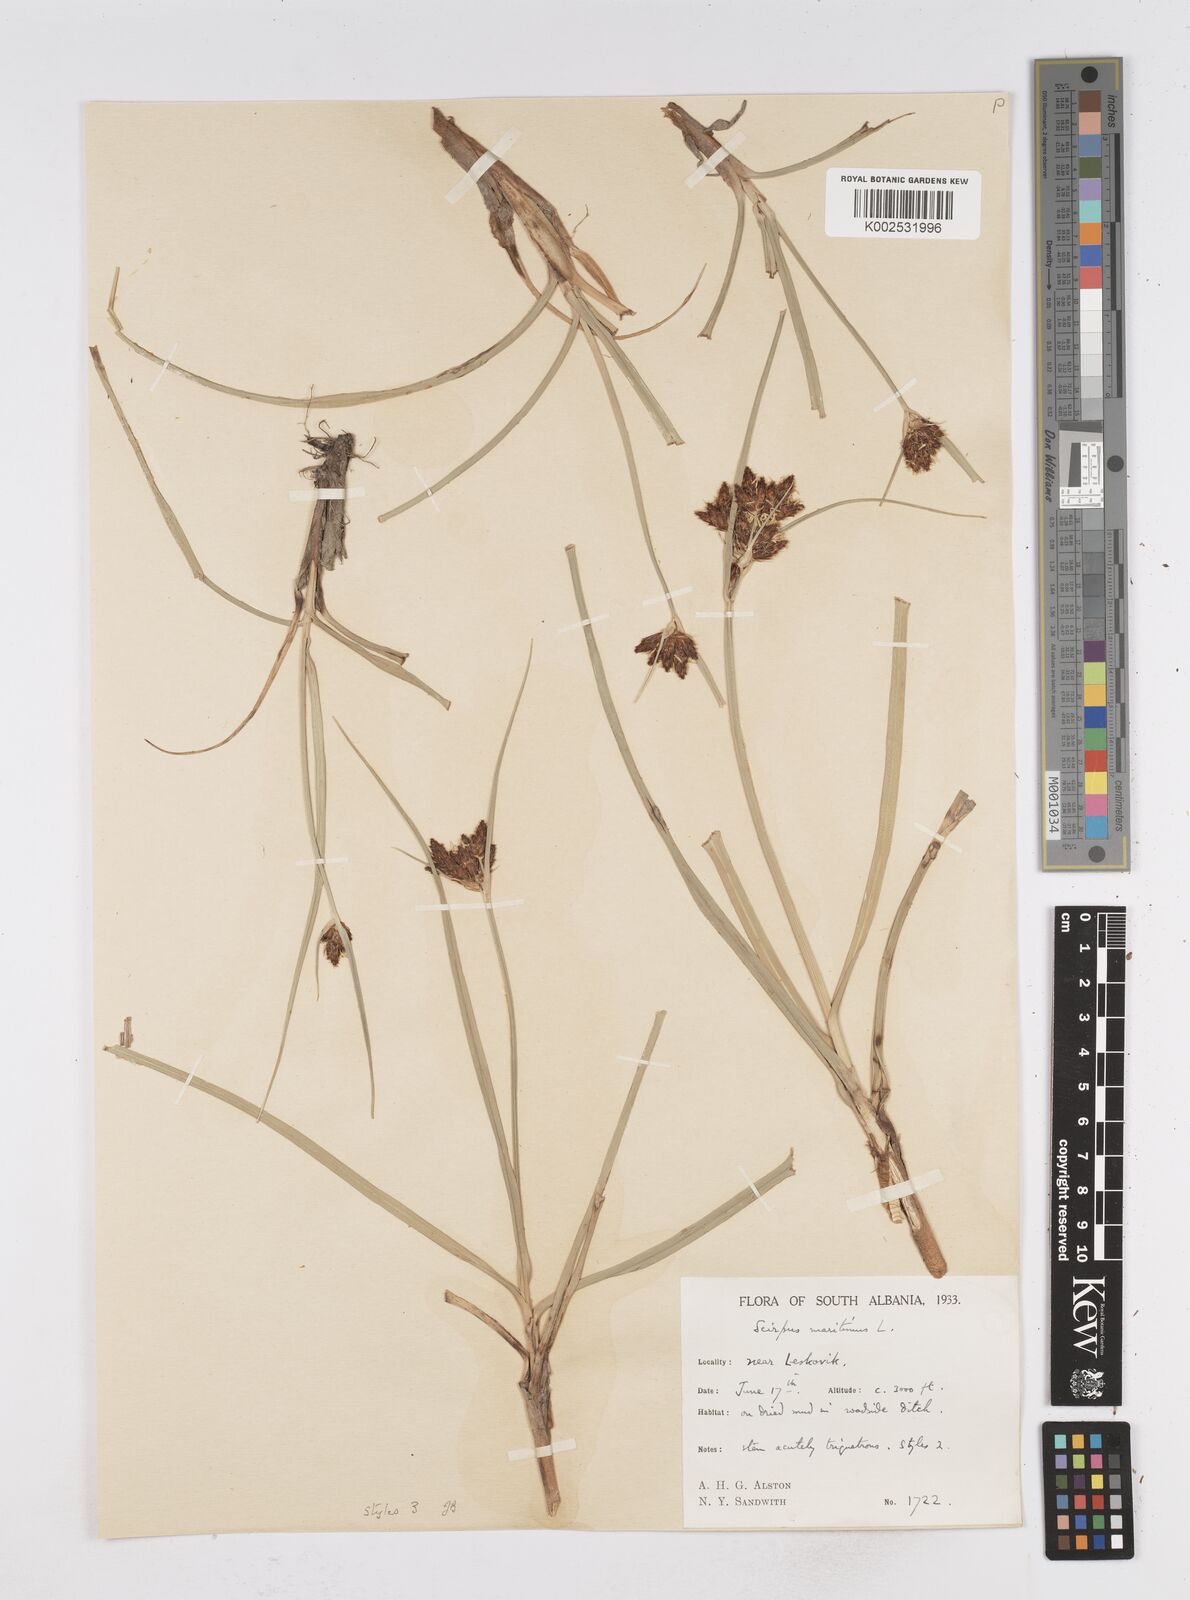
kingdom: Plantae
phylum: Tracheophyta
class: Liliopsida
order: Poales
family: Cyperaceae
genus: Bolboschoenus
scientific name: Bolboschoenus maritimus
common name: Sea club-rush
